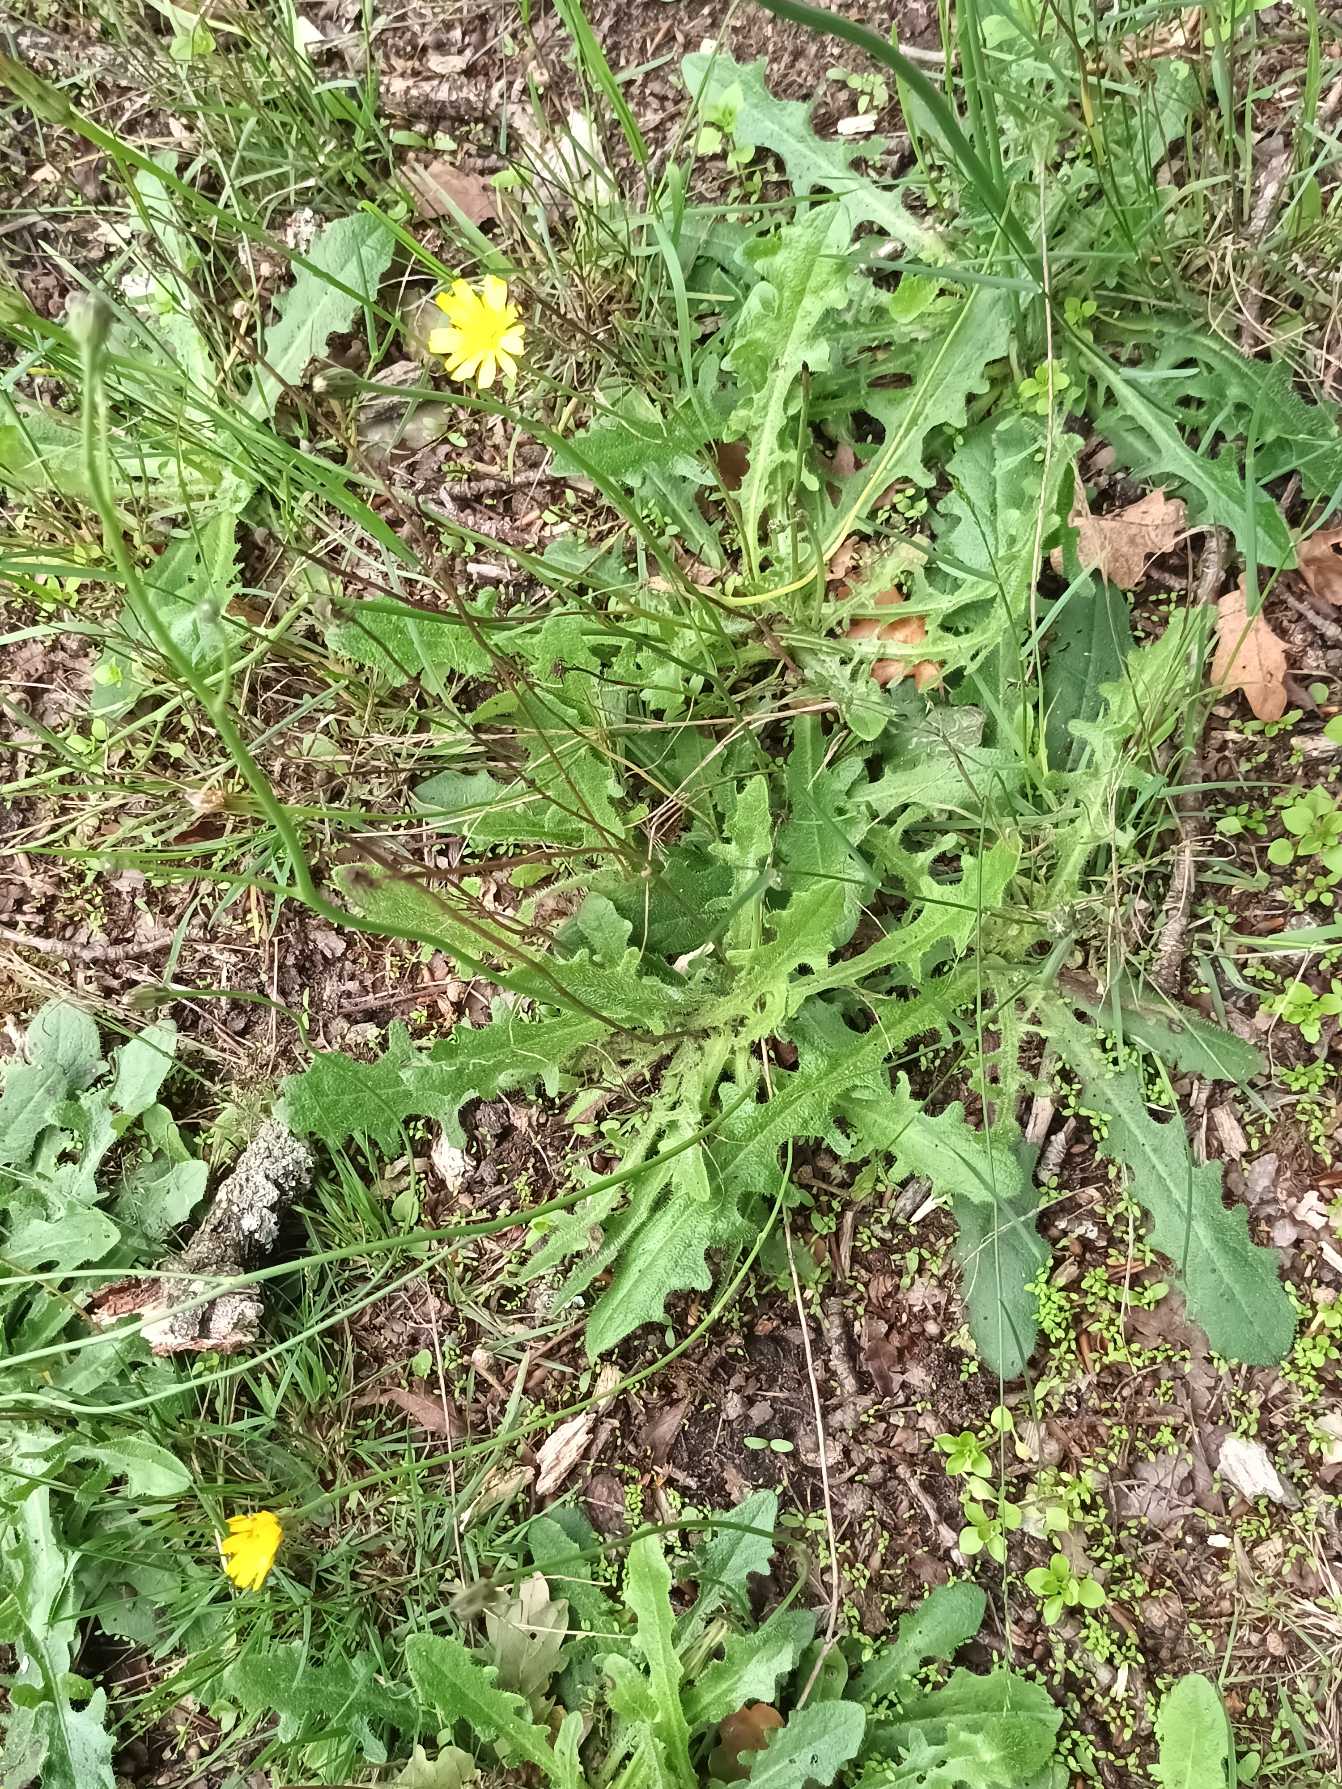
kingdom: Plantae
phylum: Tracheophyta
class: Magnoliopsida
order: Asterales
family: Asteraceae
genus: Hypochaeris
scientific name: Hypochaeris radicata
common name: Almindelig kongepen
